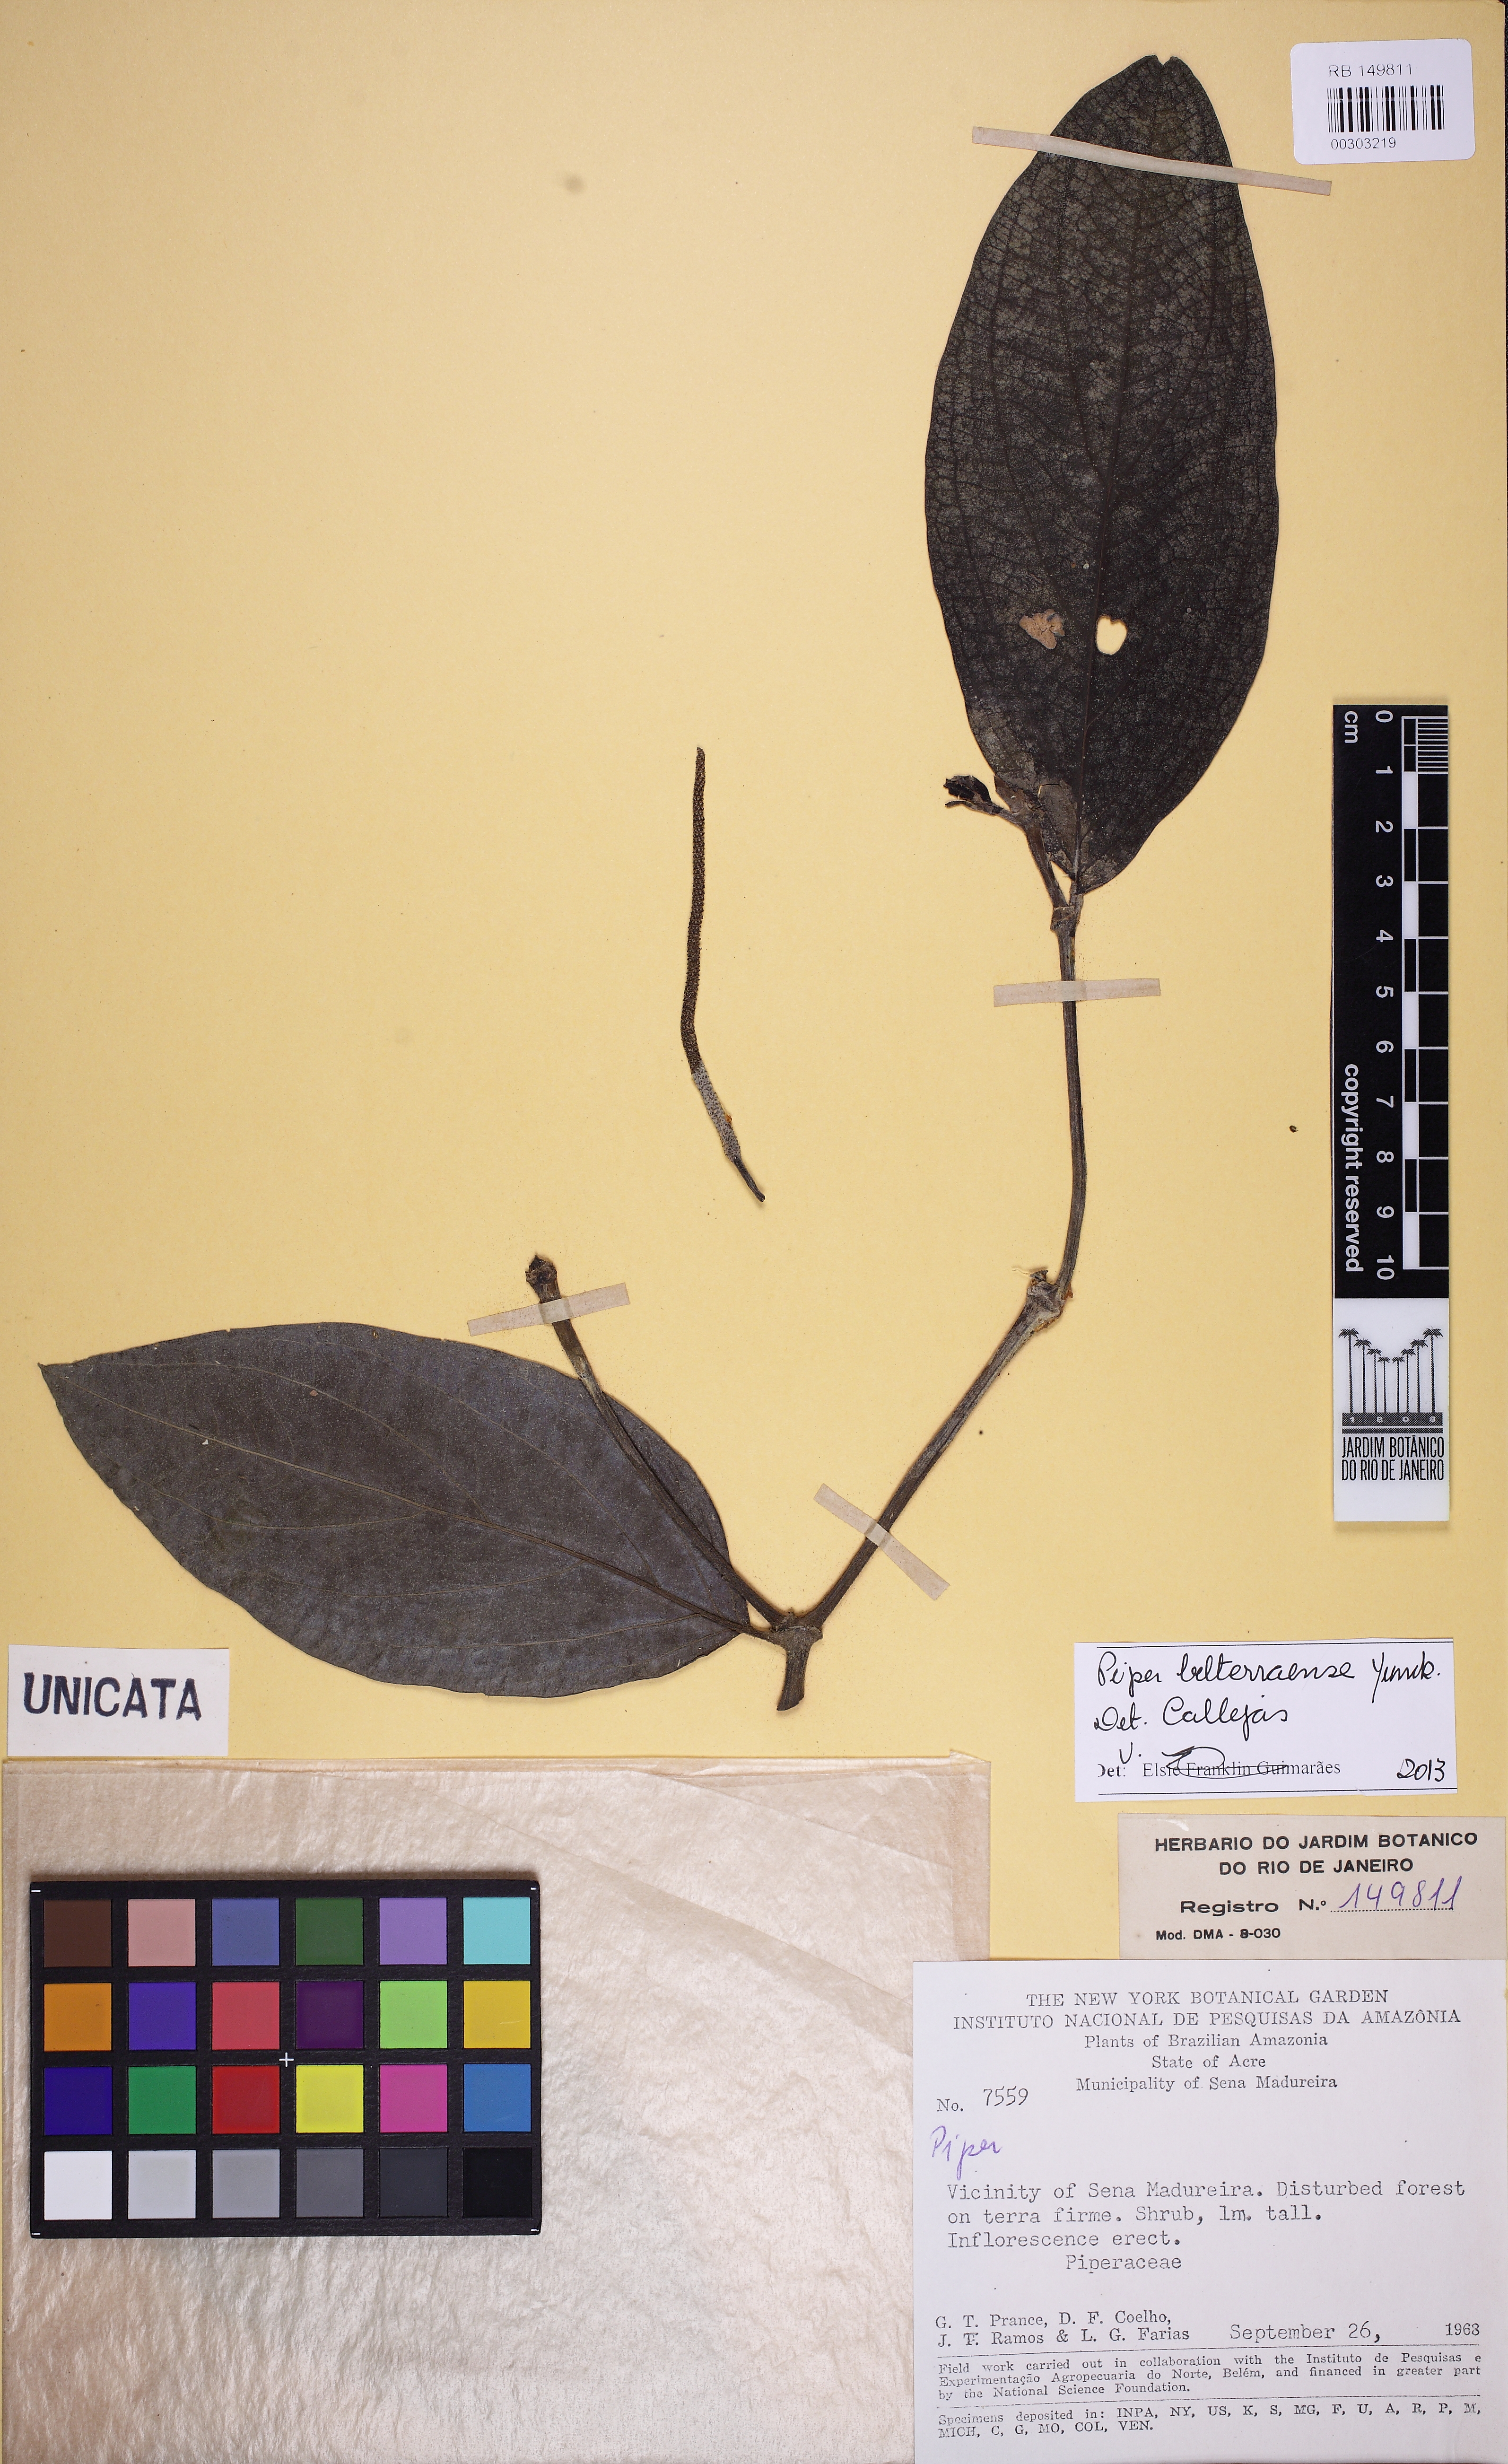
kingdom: Plantae
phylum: Tracheophyta
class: Magnoliopsida
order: Piperales
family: Piperaceae
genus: Piper
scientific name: Piper belterraense
